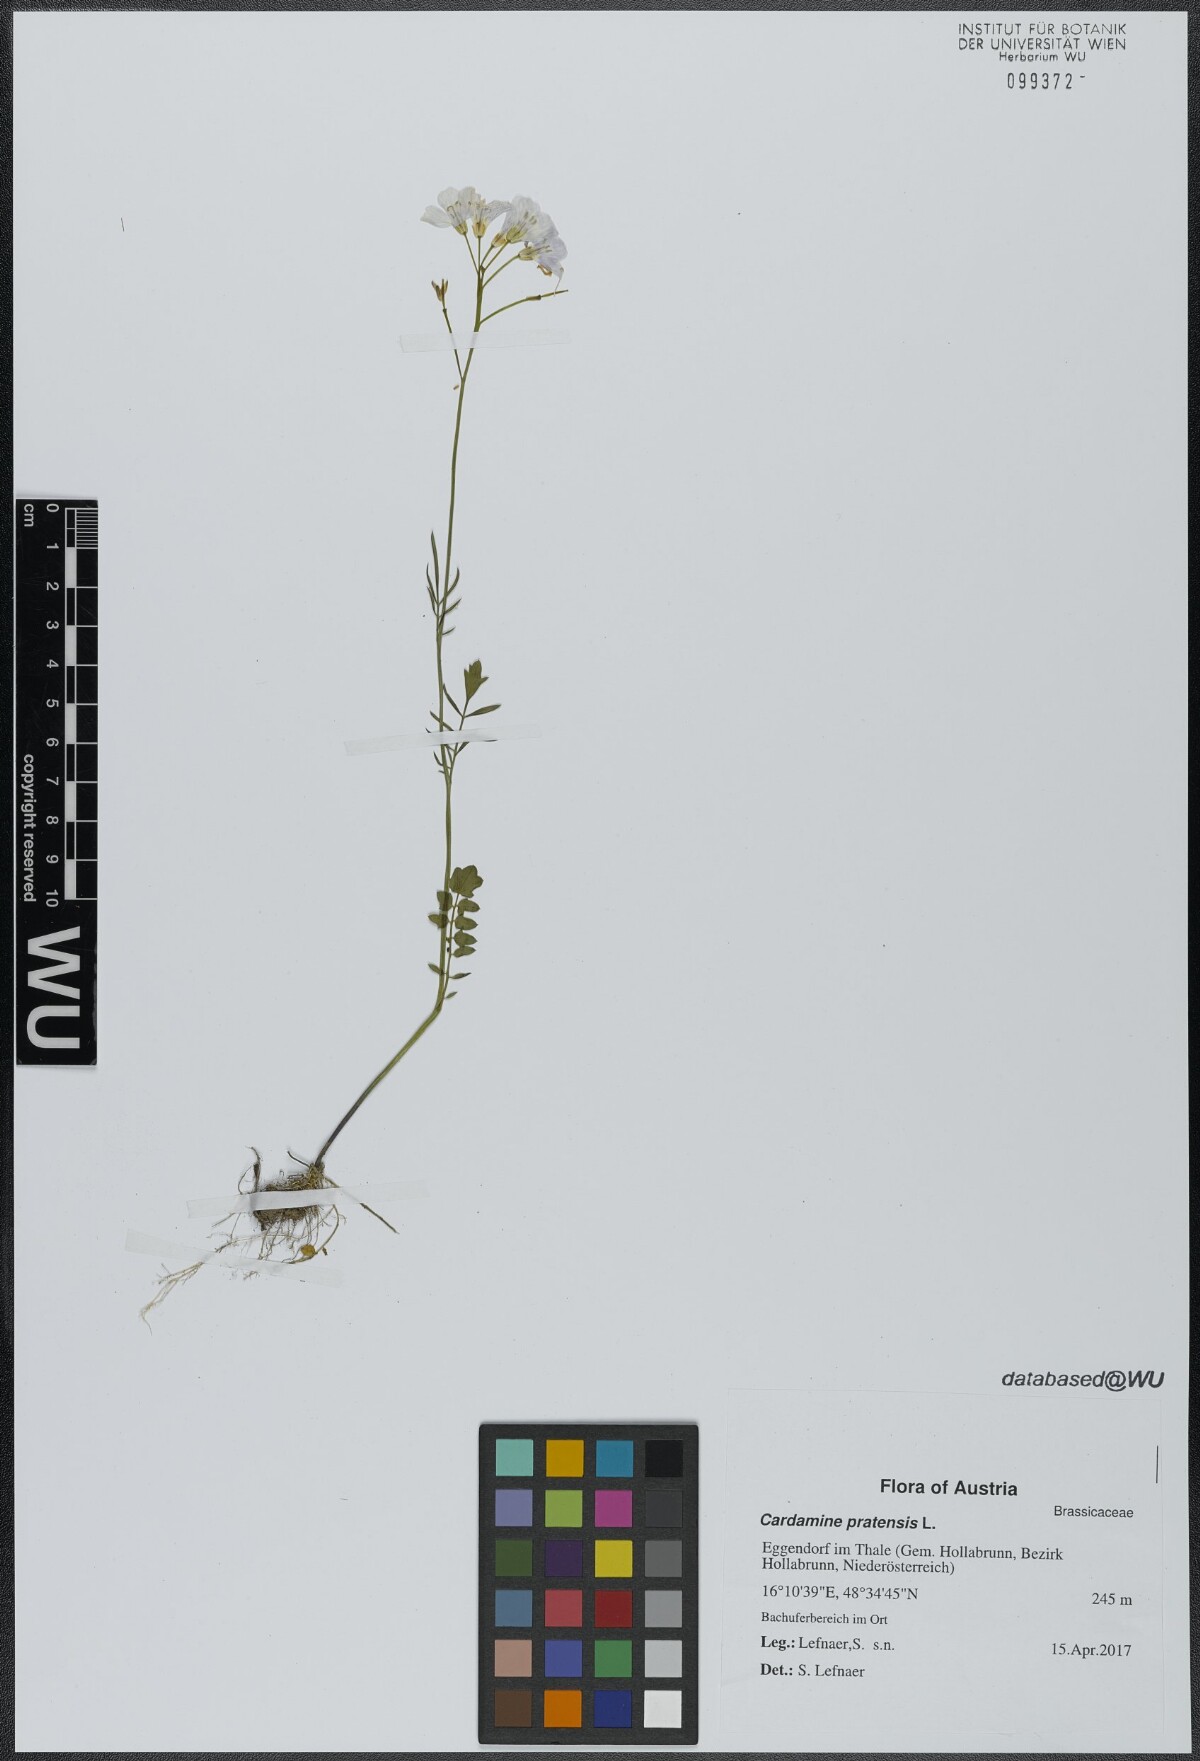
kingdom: Plantae
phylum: Tracheophyta
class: Magnoliopsida
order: Brassicales
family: Brassicaceae
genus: Cardamine
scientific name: Cardamine pratensis
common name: Cuckoo flower
